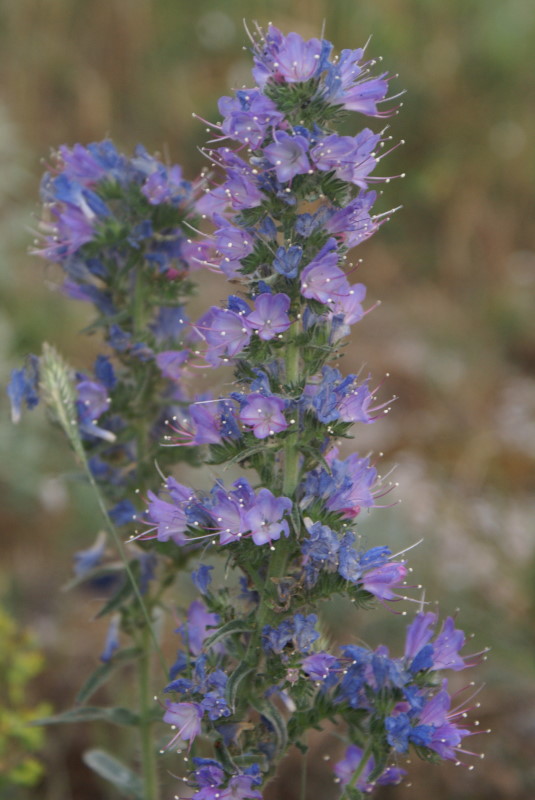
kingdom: Plantae
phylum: Tracheophyta
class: Magnoliopsida
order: Boraginales
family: Boraginaceae
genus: Echium
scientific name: Echium vulgare
